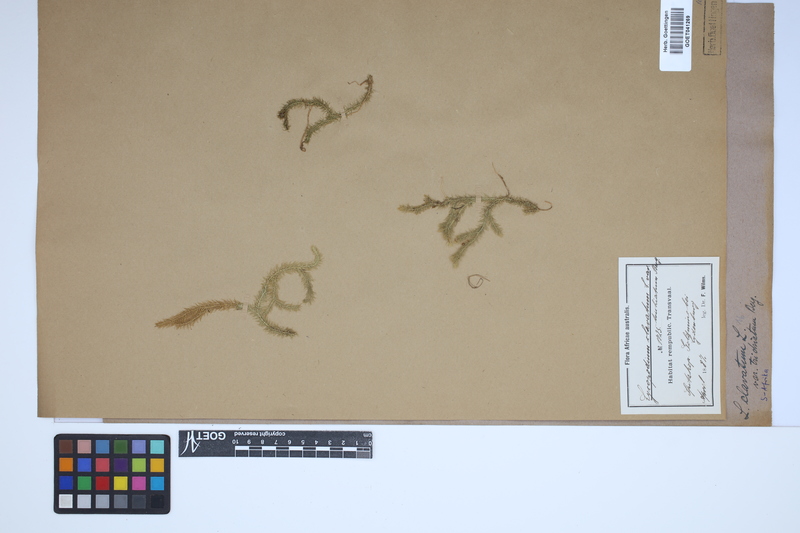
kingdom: Plantae
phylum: Tracheophyta
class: Lycopodiopsida
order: Lycopodiales
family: Lycopodiaceae
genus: Lycopodium
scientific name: Lycopodium clavatum
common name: Stag's-horn clubmoss
